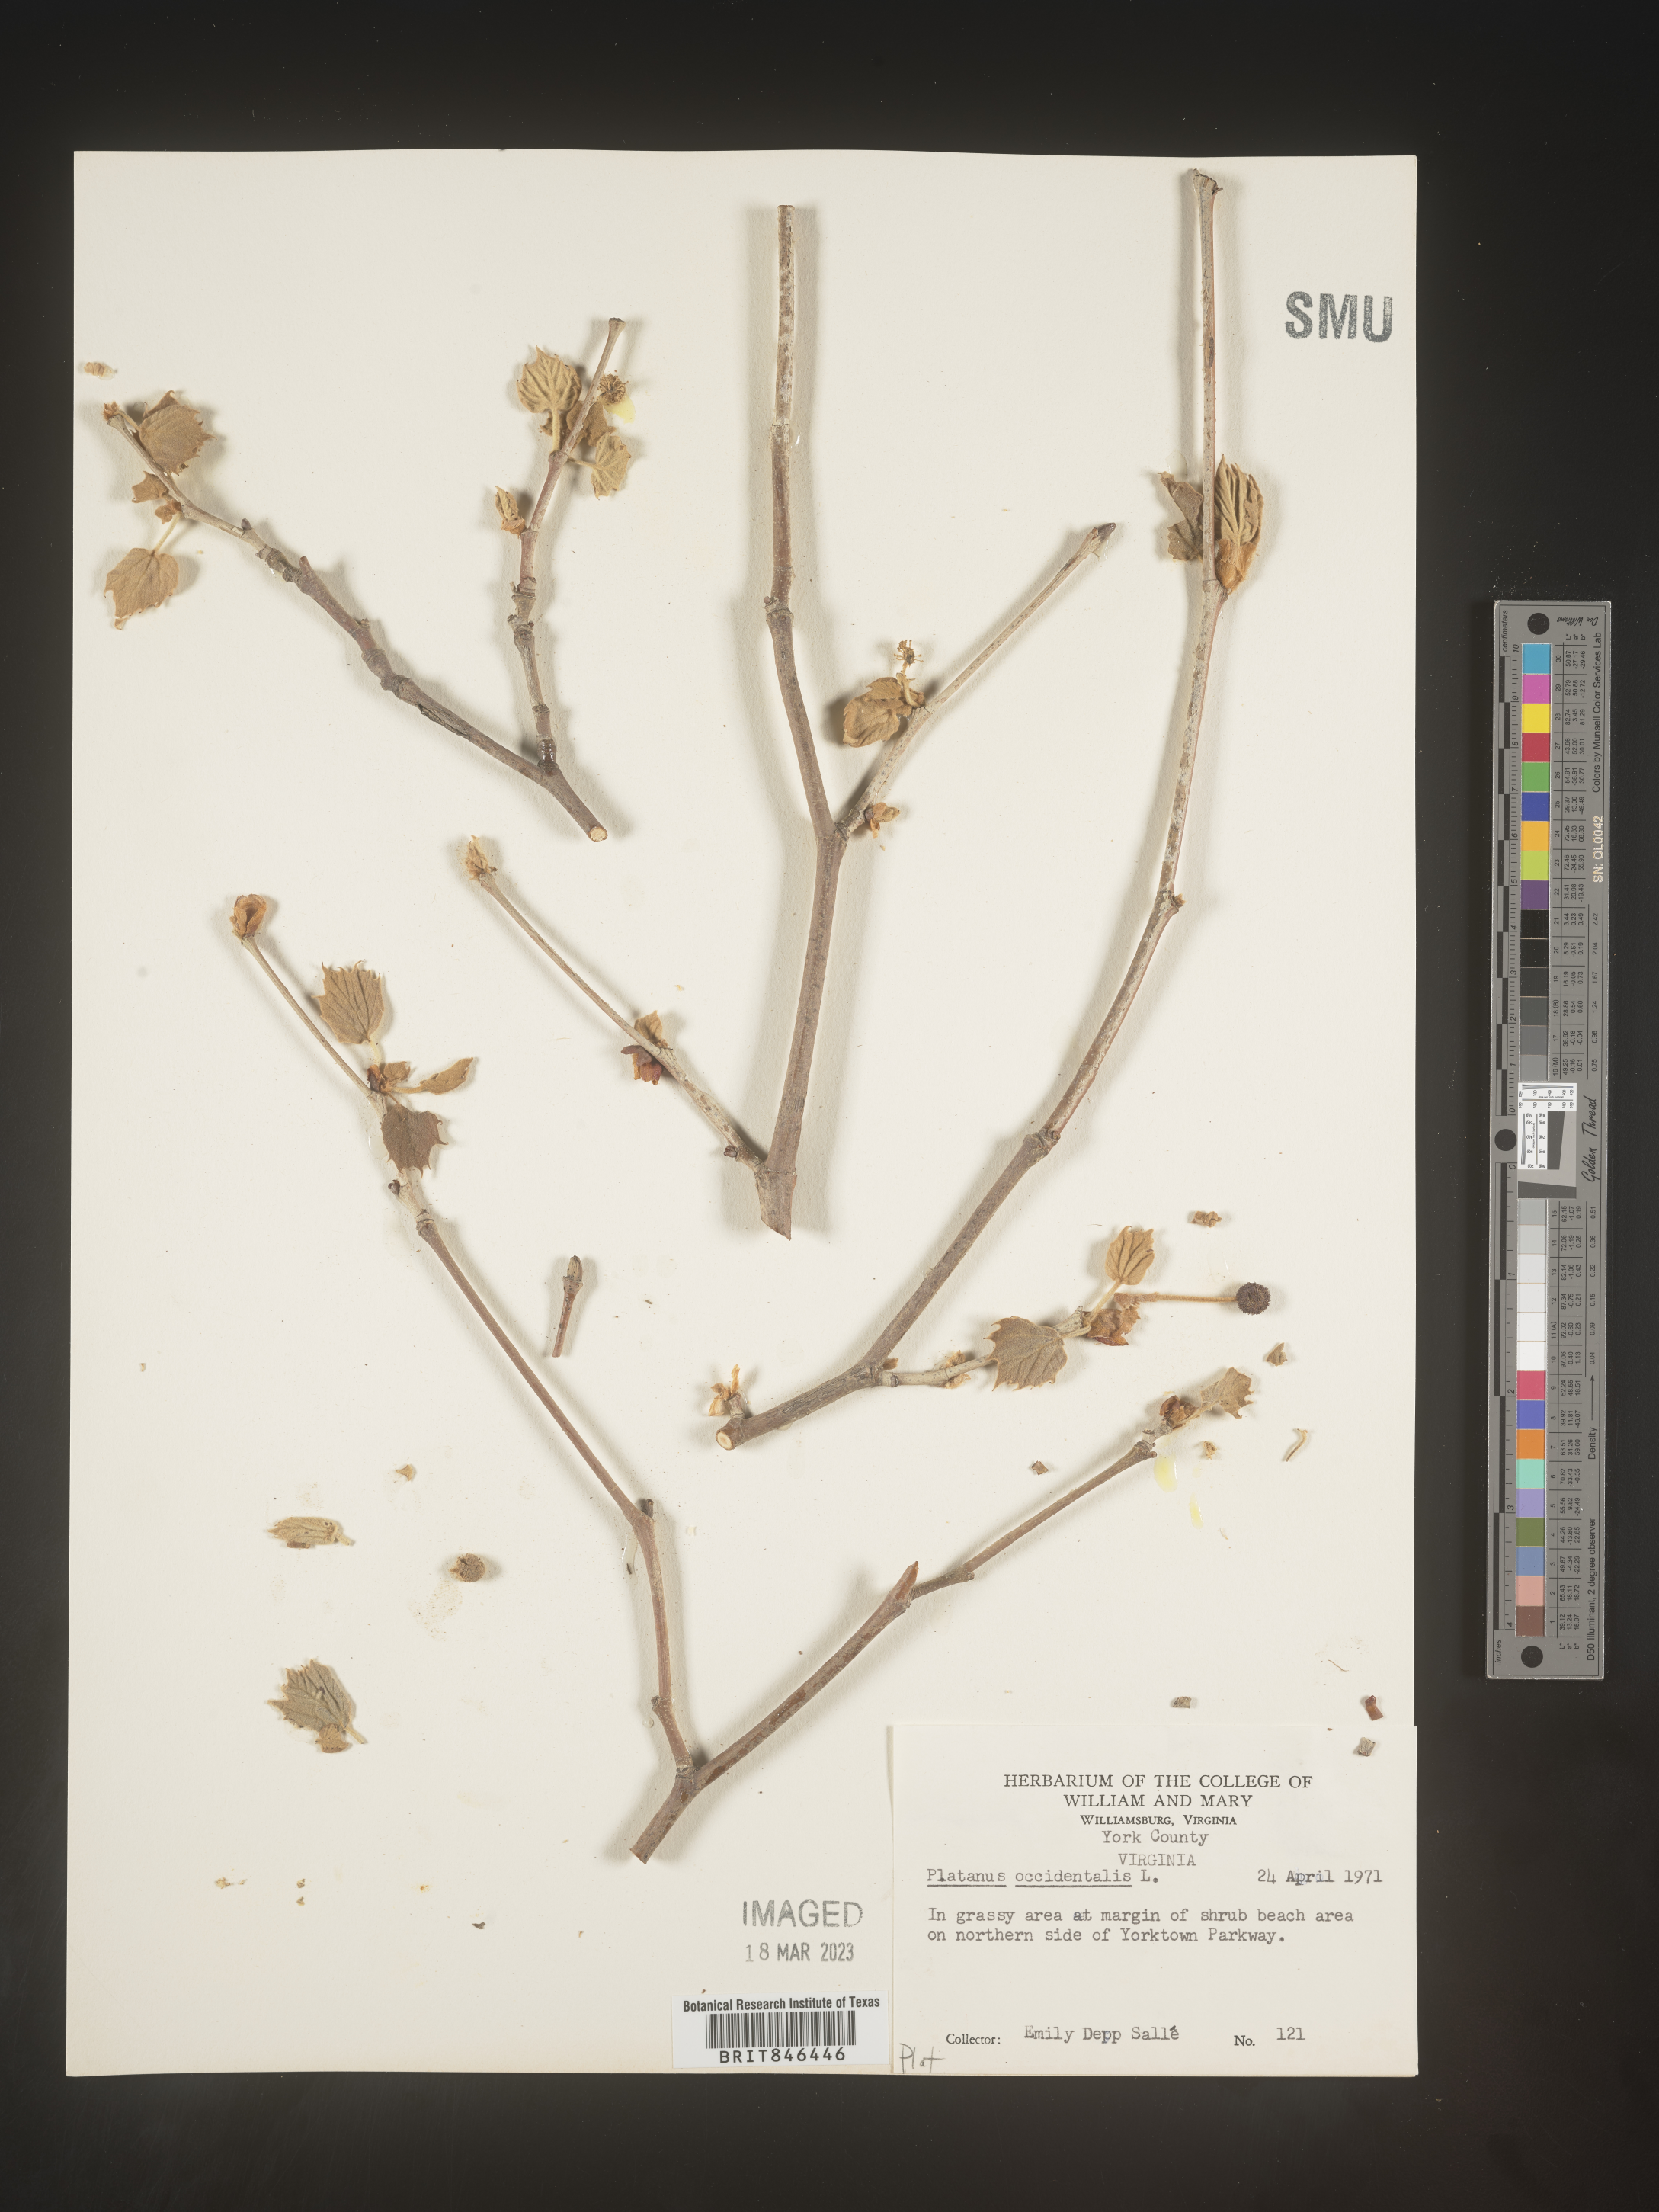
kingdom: Plantae
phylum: Tracheophyta
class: Magnoliopsida
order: Proteales
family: Platanaceae
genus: Platanus
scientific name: Platanus occidentalis
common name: American sycamore
